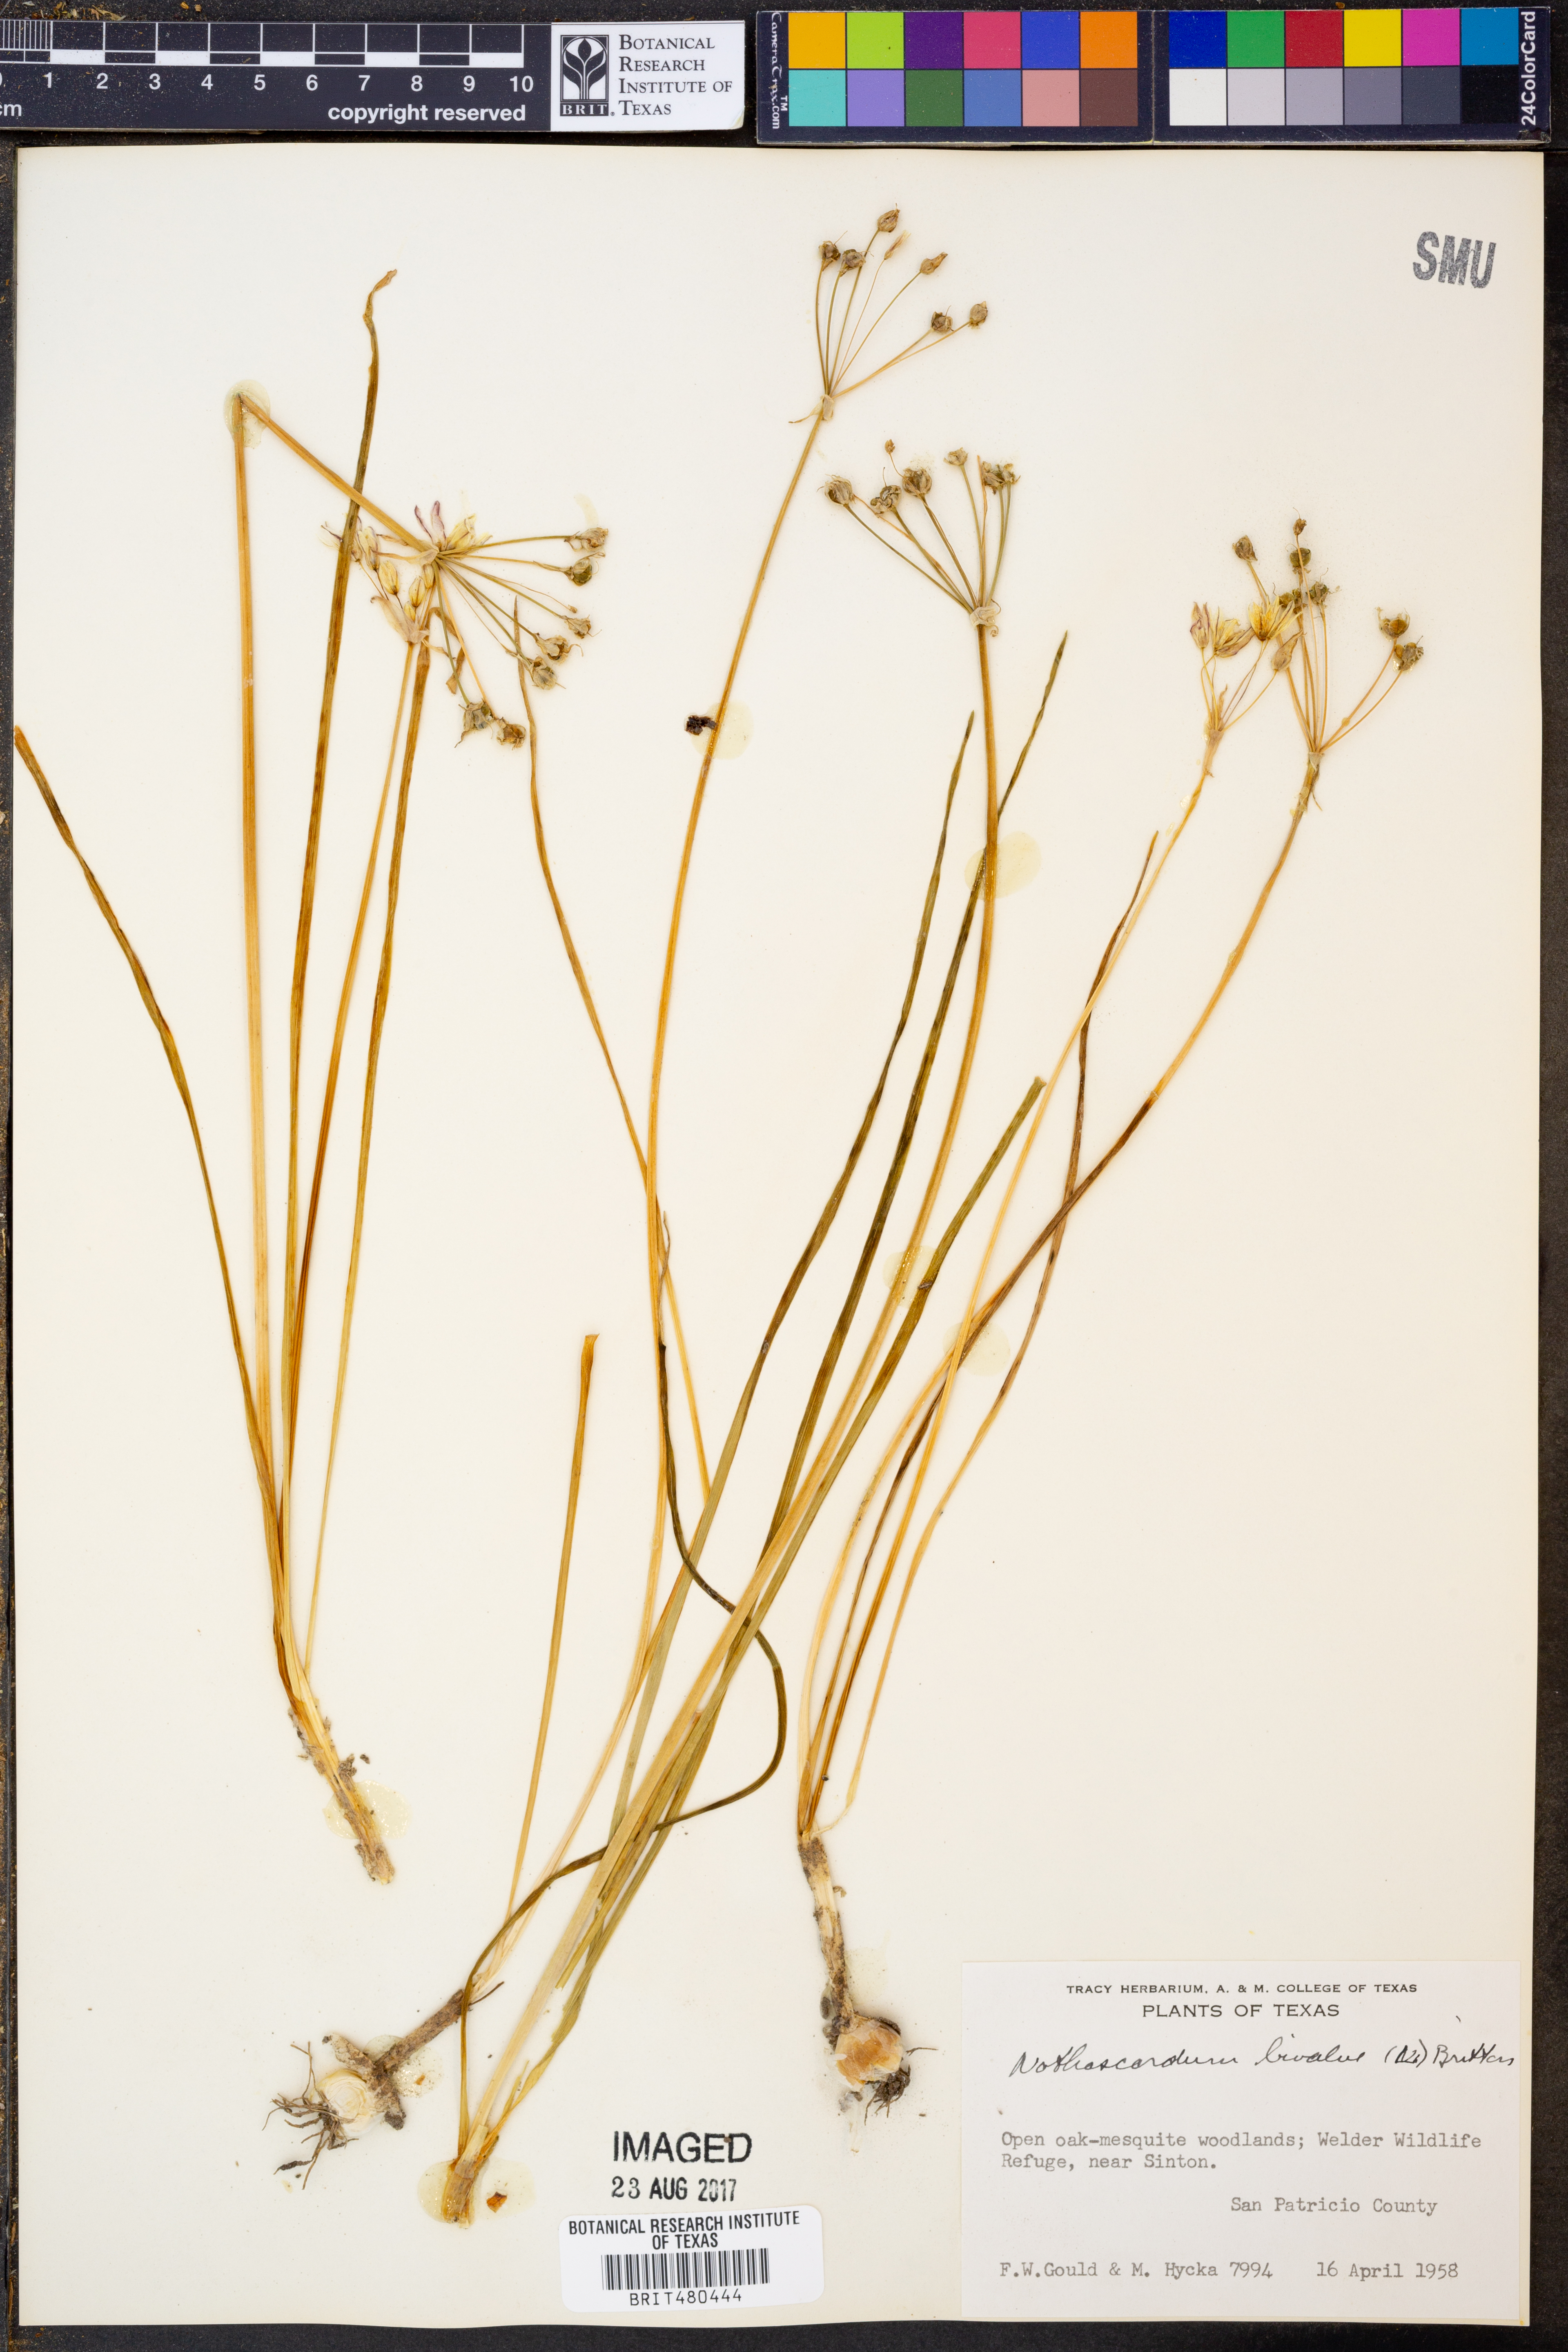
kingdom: Plantae
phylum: Tracheophyta
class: Liliopsida
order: Asparagales
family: Amaryllidaceae
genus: Nothoscordum
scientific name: Nothoscordum bivalve
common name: Crow-poison
